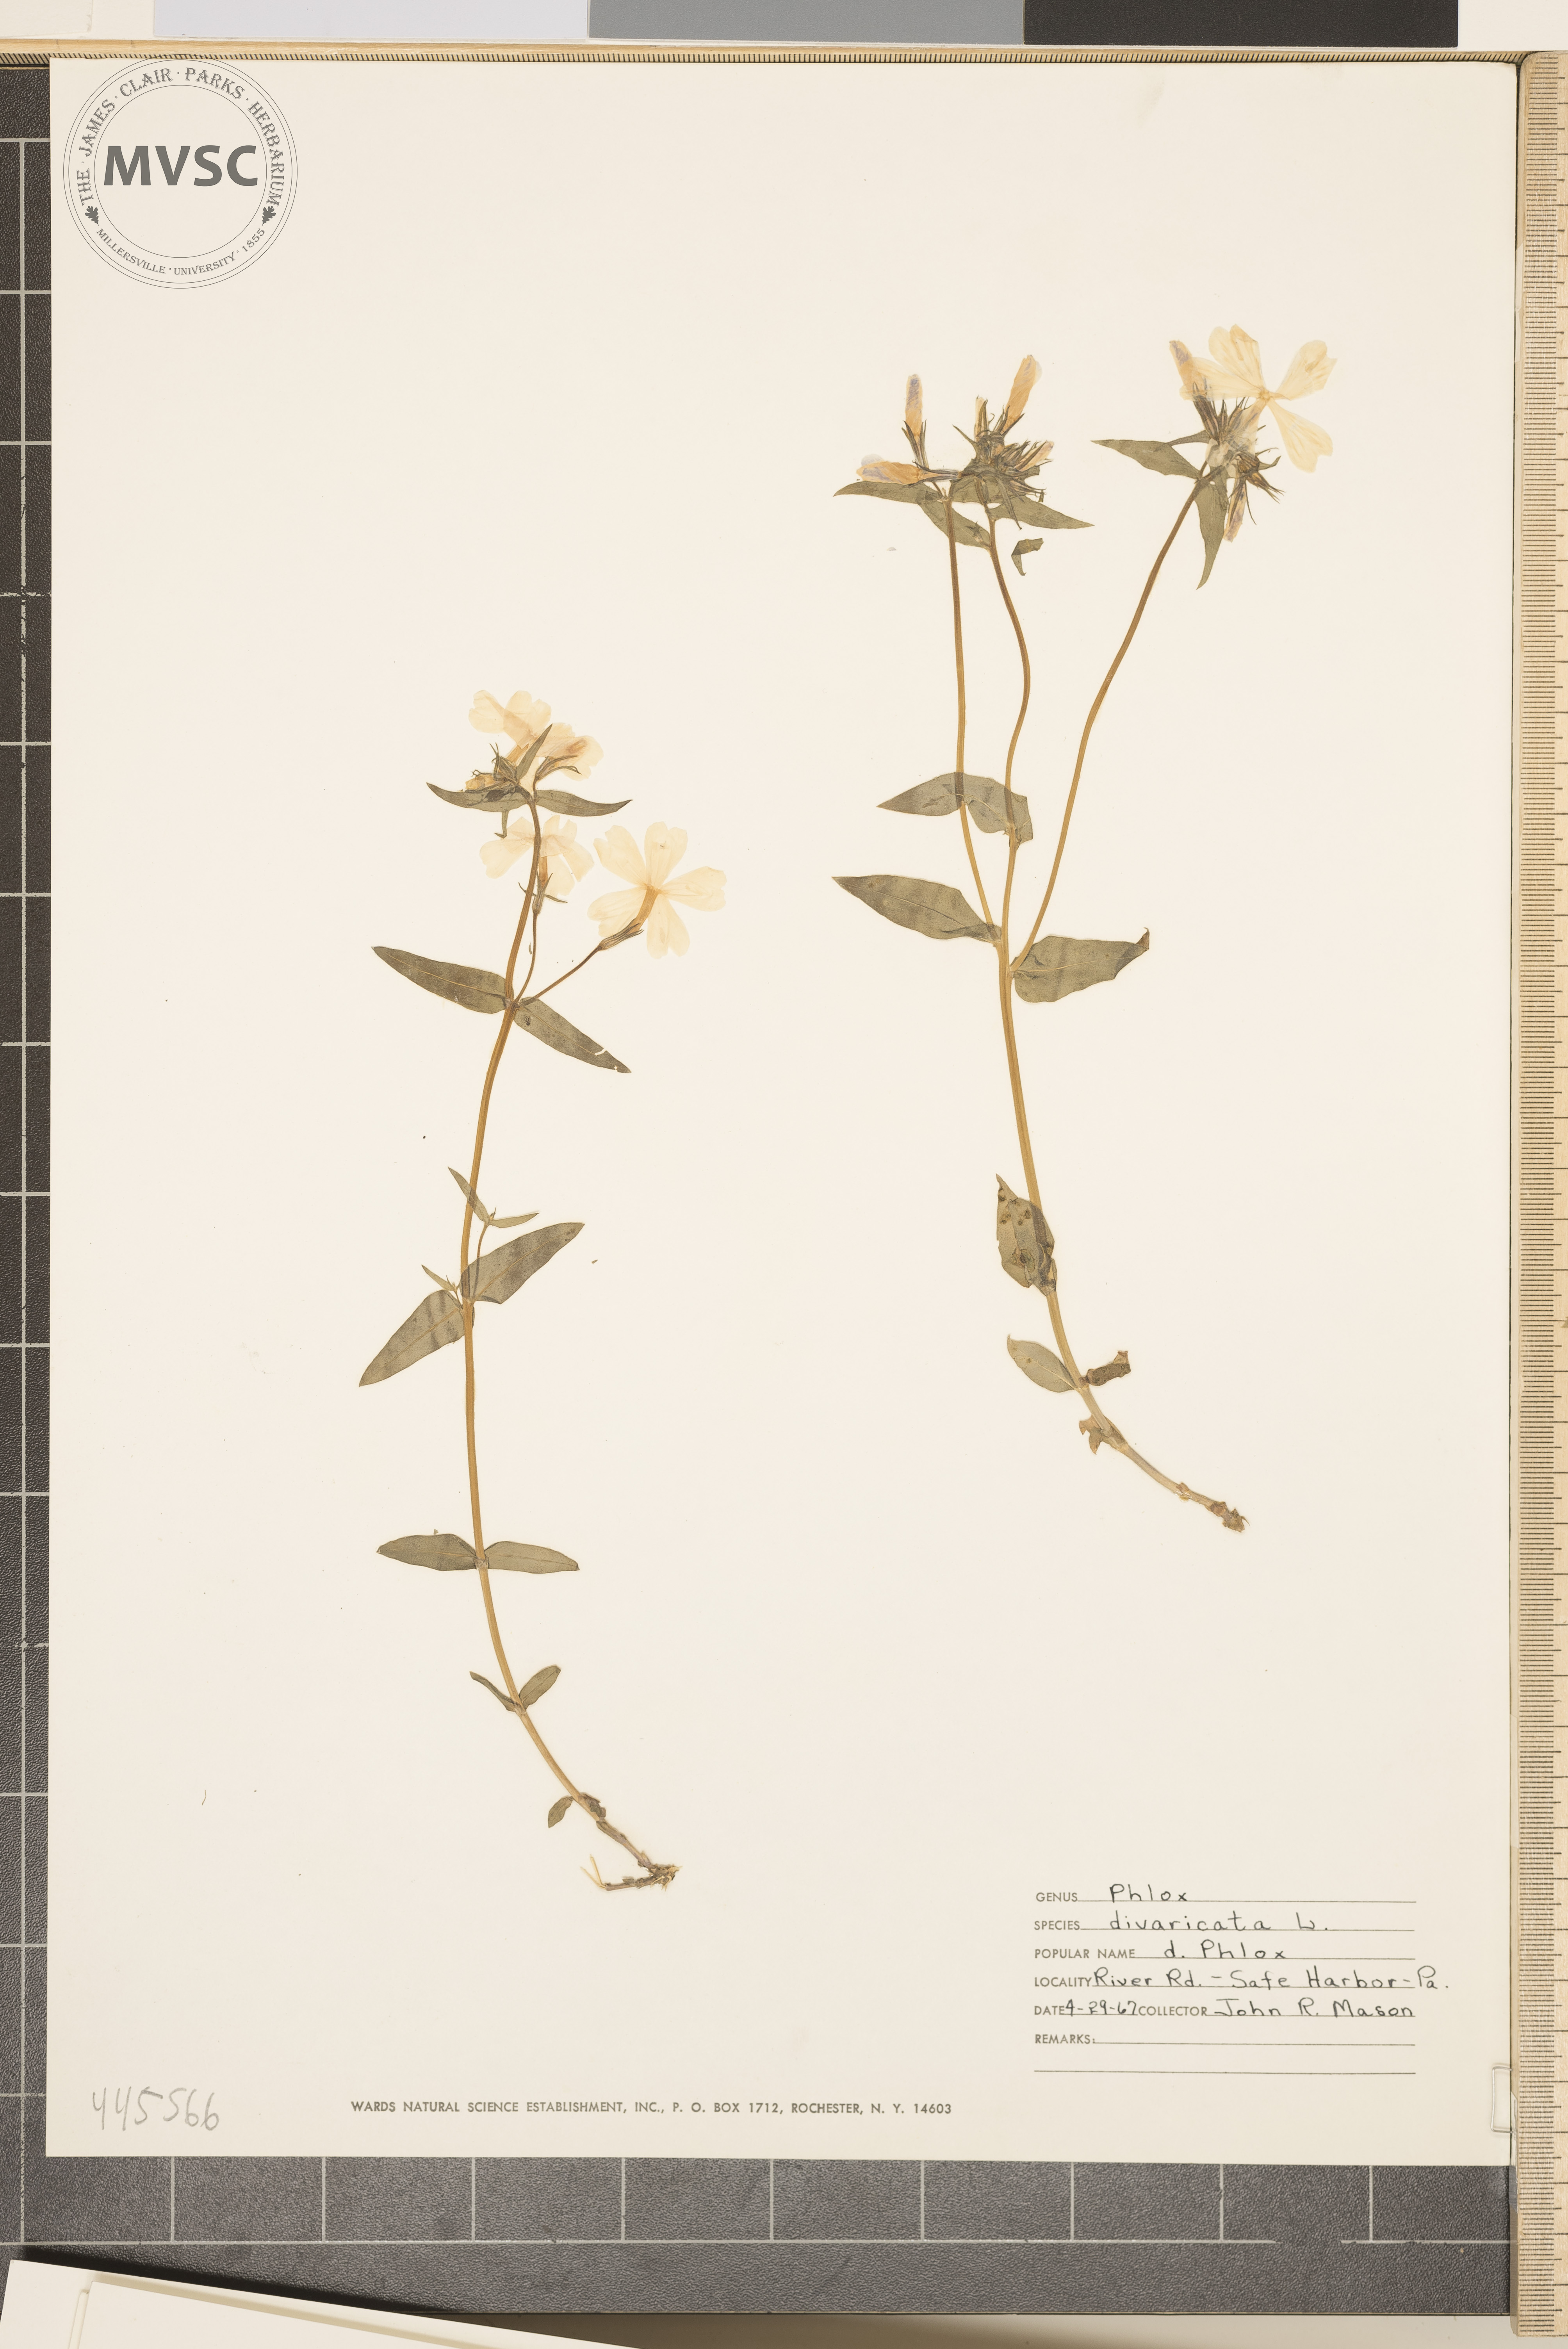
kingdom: Plantae
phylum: Tracheophyta
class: Magnoliopsida
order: Ericales
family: Polemoniaceae
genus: Phlox
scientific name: Phlox divaricata
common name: Blue phlox
